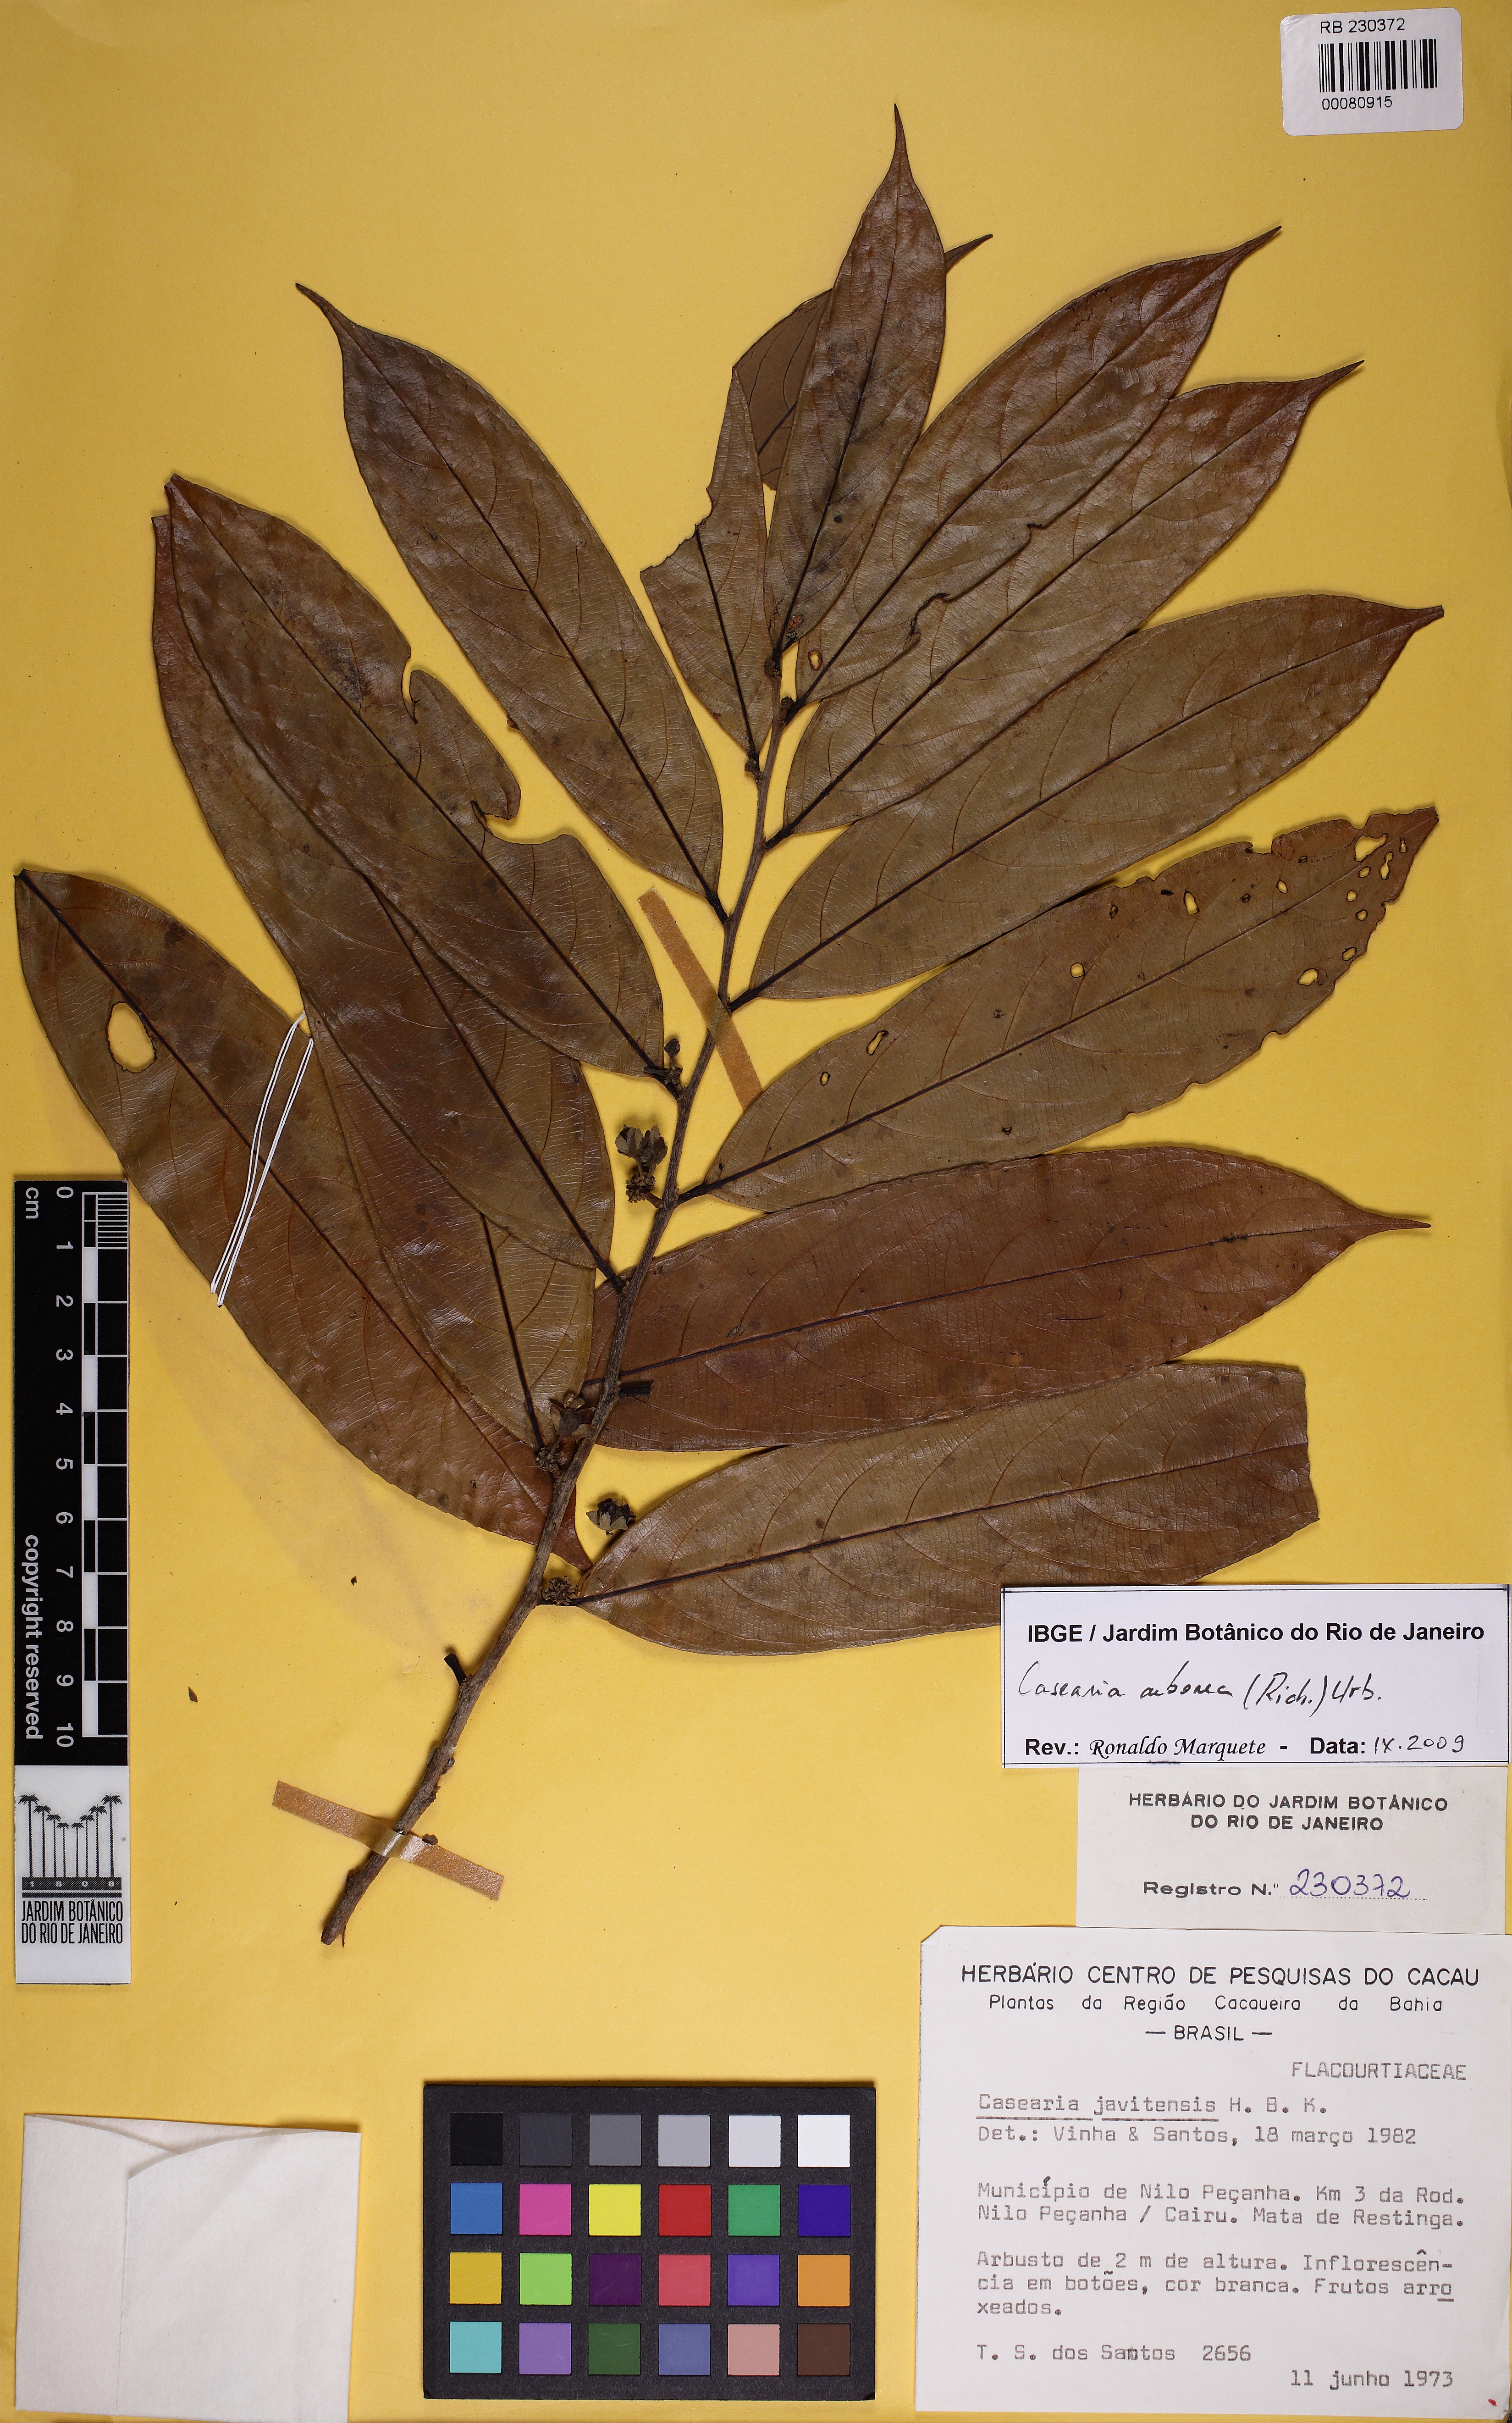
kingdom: Plantae
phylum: Tracheophyta
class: Magnoliopsida
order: Malpighiales
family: Salicaceae
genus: Casearia
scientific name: Casearia arborea
